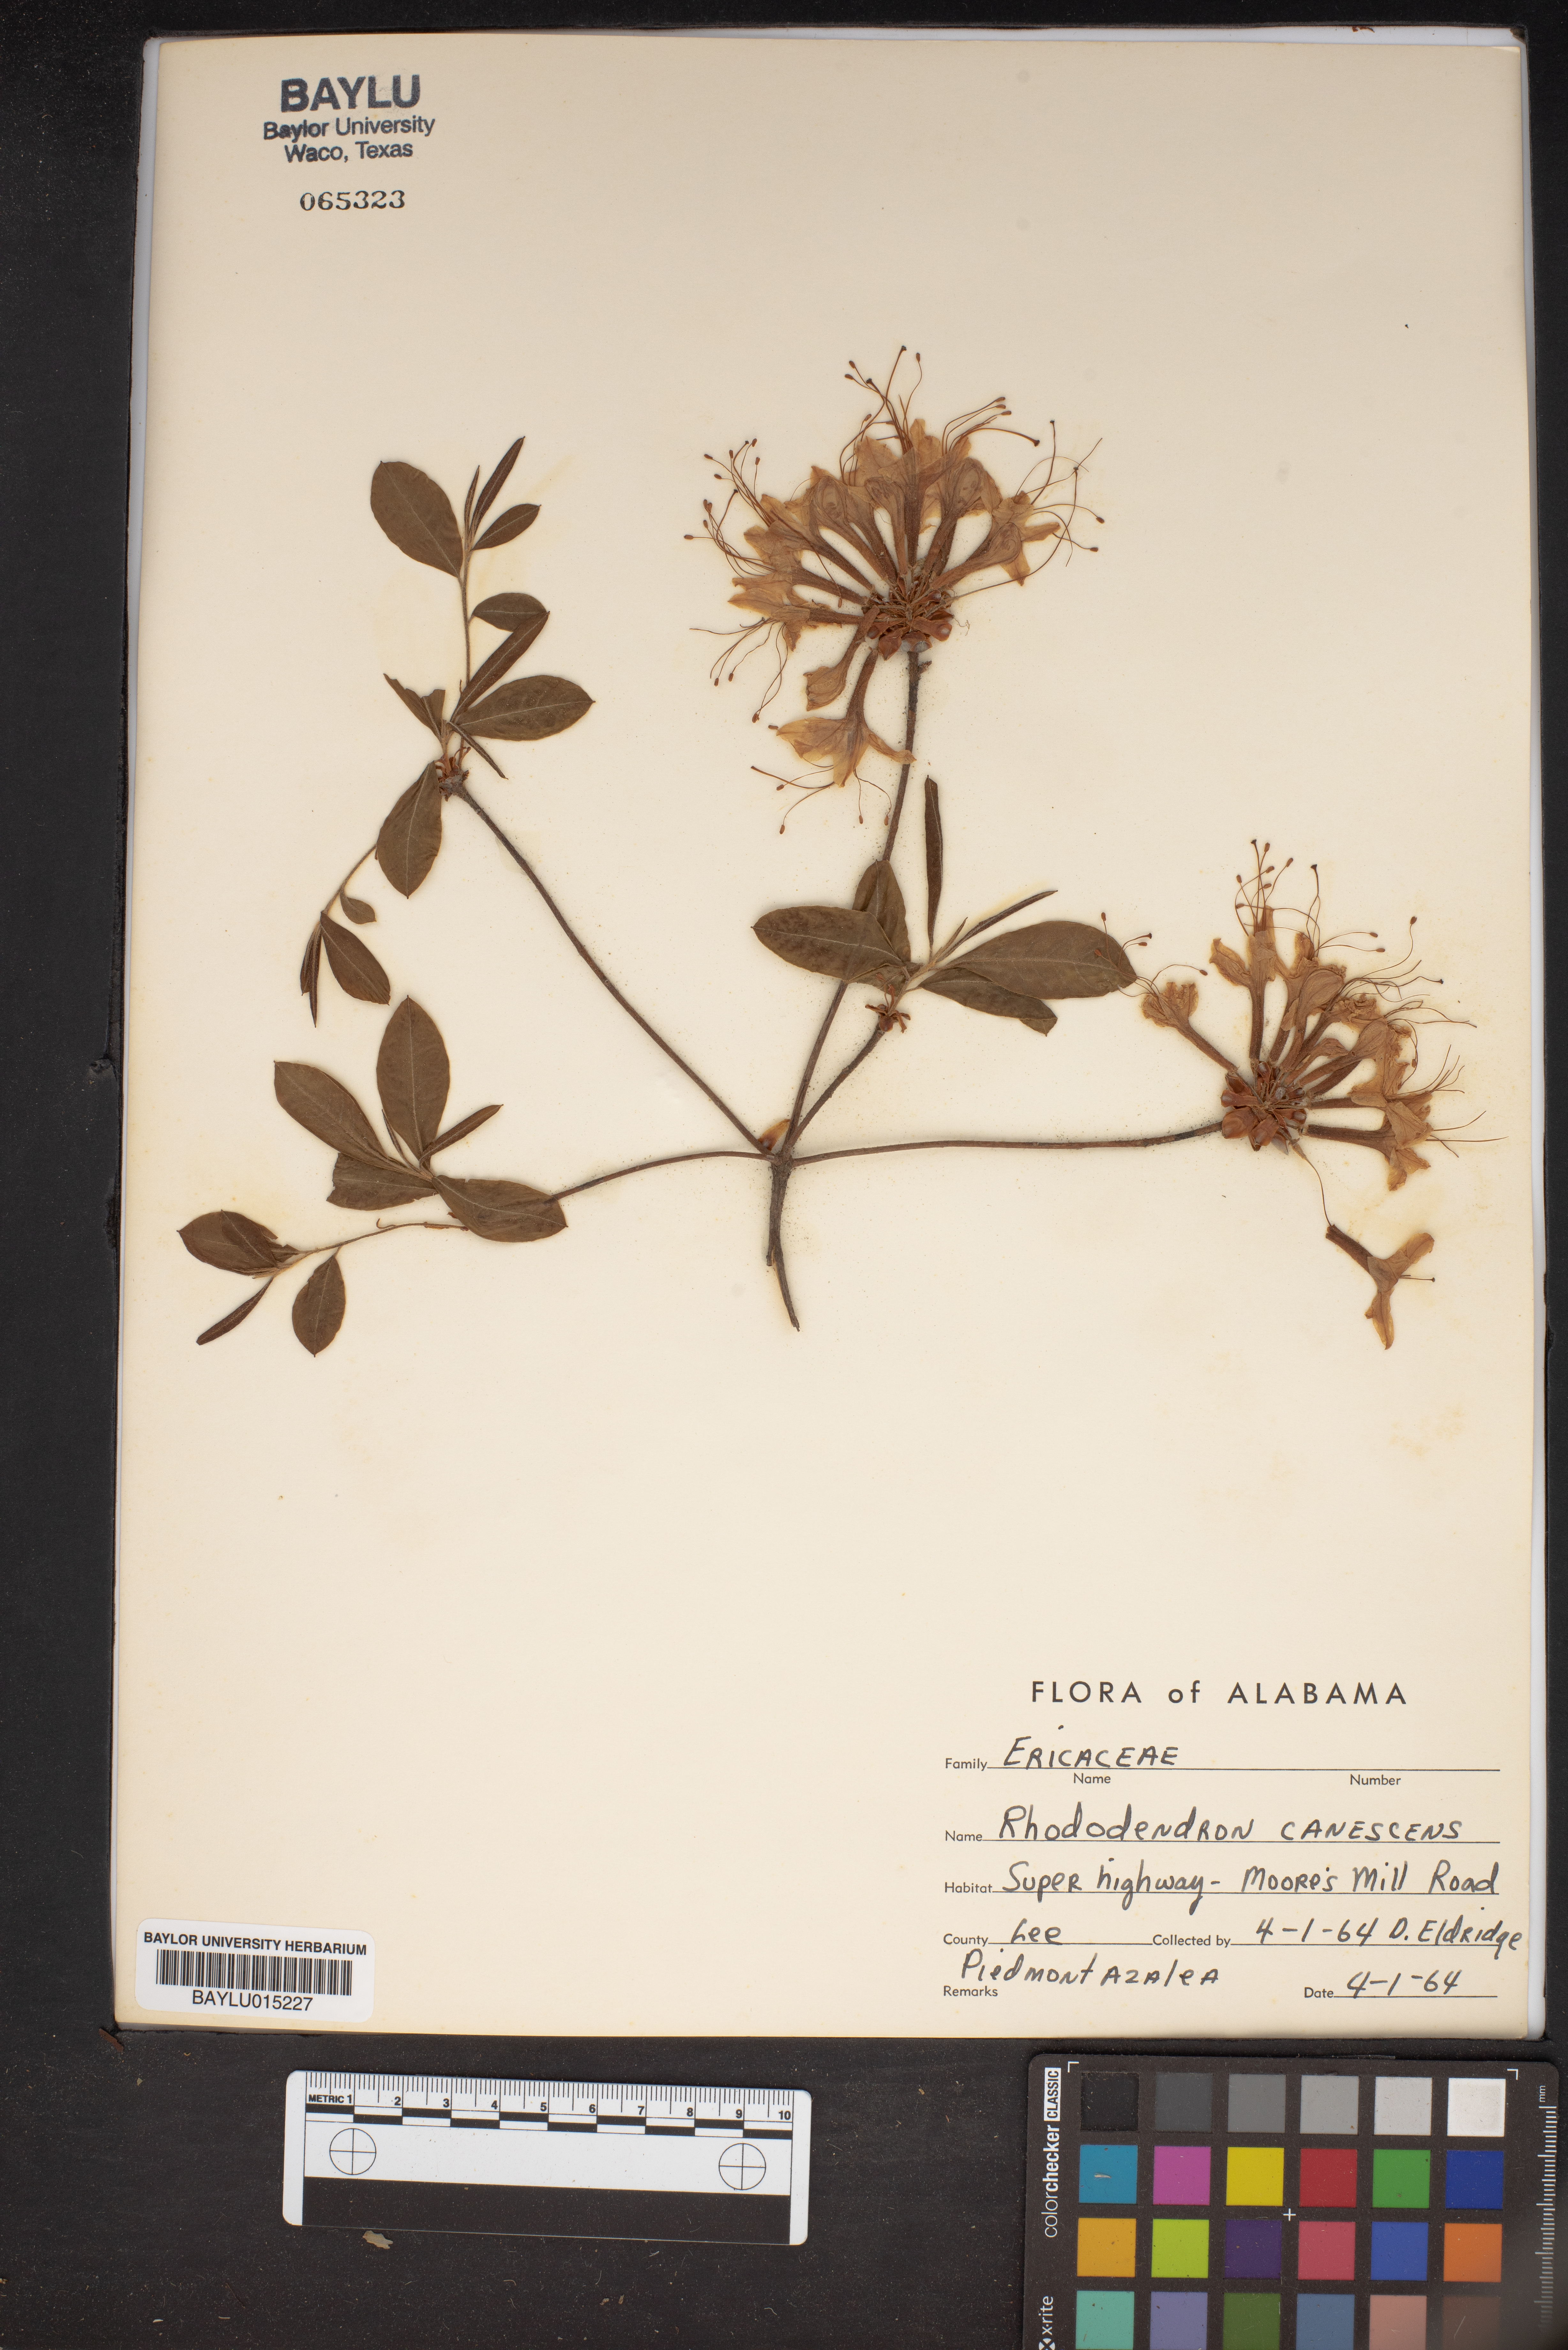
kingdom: Plantae
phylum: Tracheophyta
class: Magnoliopsida
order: Ericales
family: Ericaceae
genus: Rhododendron
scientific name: Rhododendron canescens
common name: Mountain azalea
